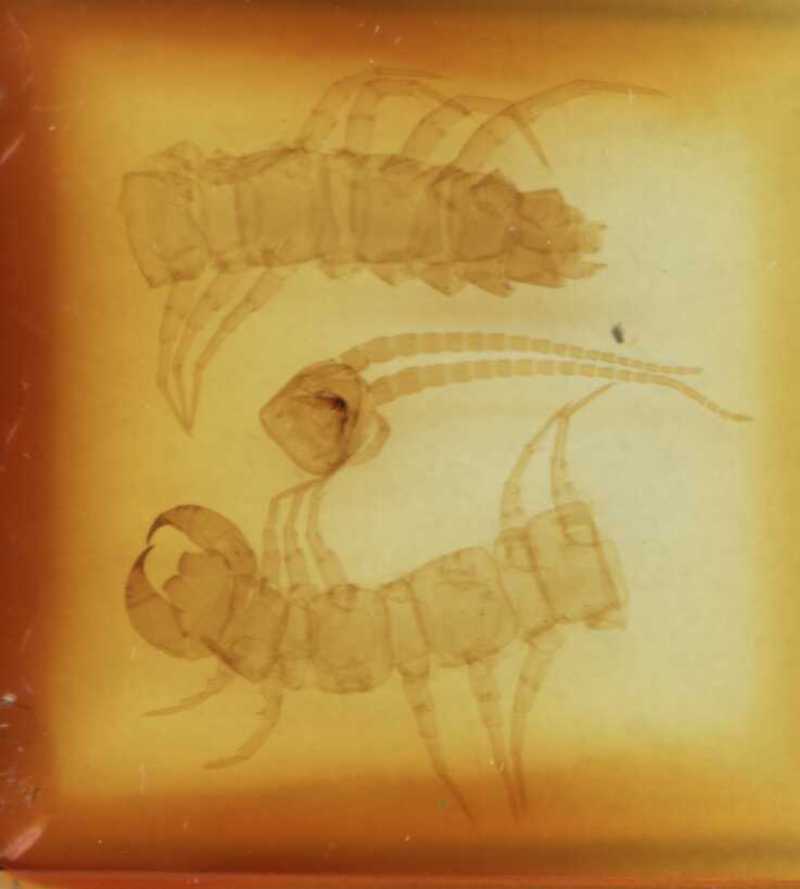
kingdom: Animalia
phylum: Arthropoda
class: Chilopoda
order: Lithobiomorpha
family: Lithobiidae
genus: Bothropolys
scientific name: Bothropolys imaharensis
